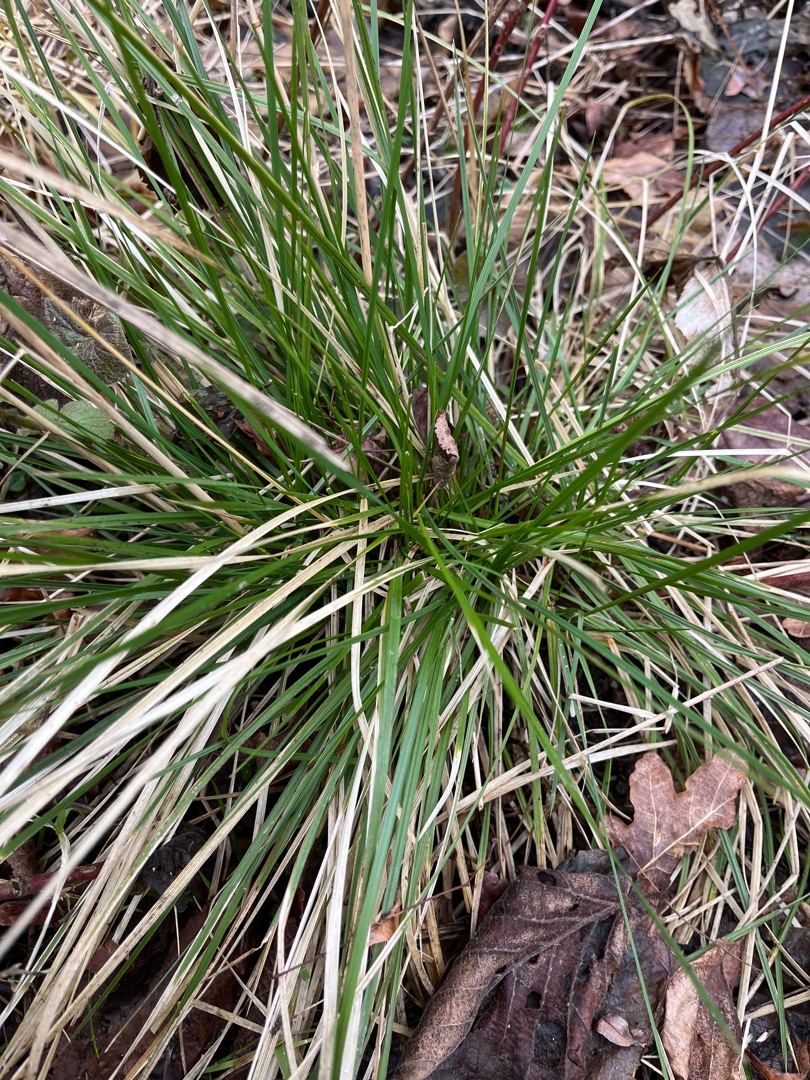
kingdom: Plantae
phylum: Tracheophyta
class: Liliopsida
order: Poales
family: Poaceae
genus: Deschampsia
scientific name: Deschampsia cespitosa
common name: Mose-bunke
